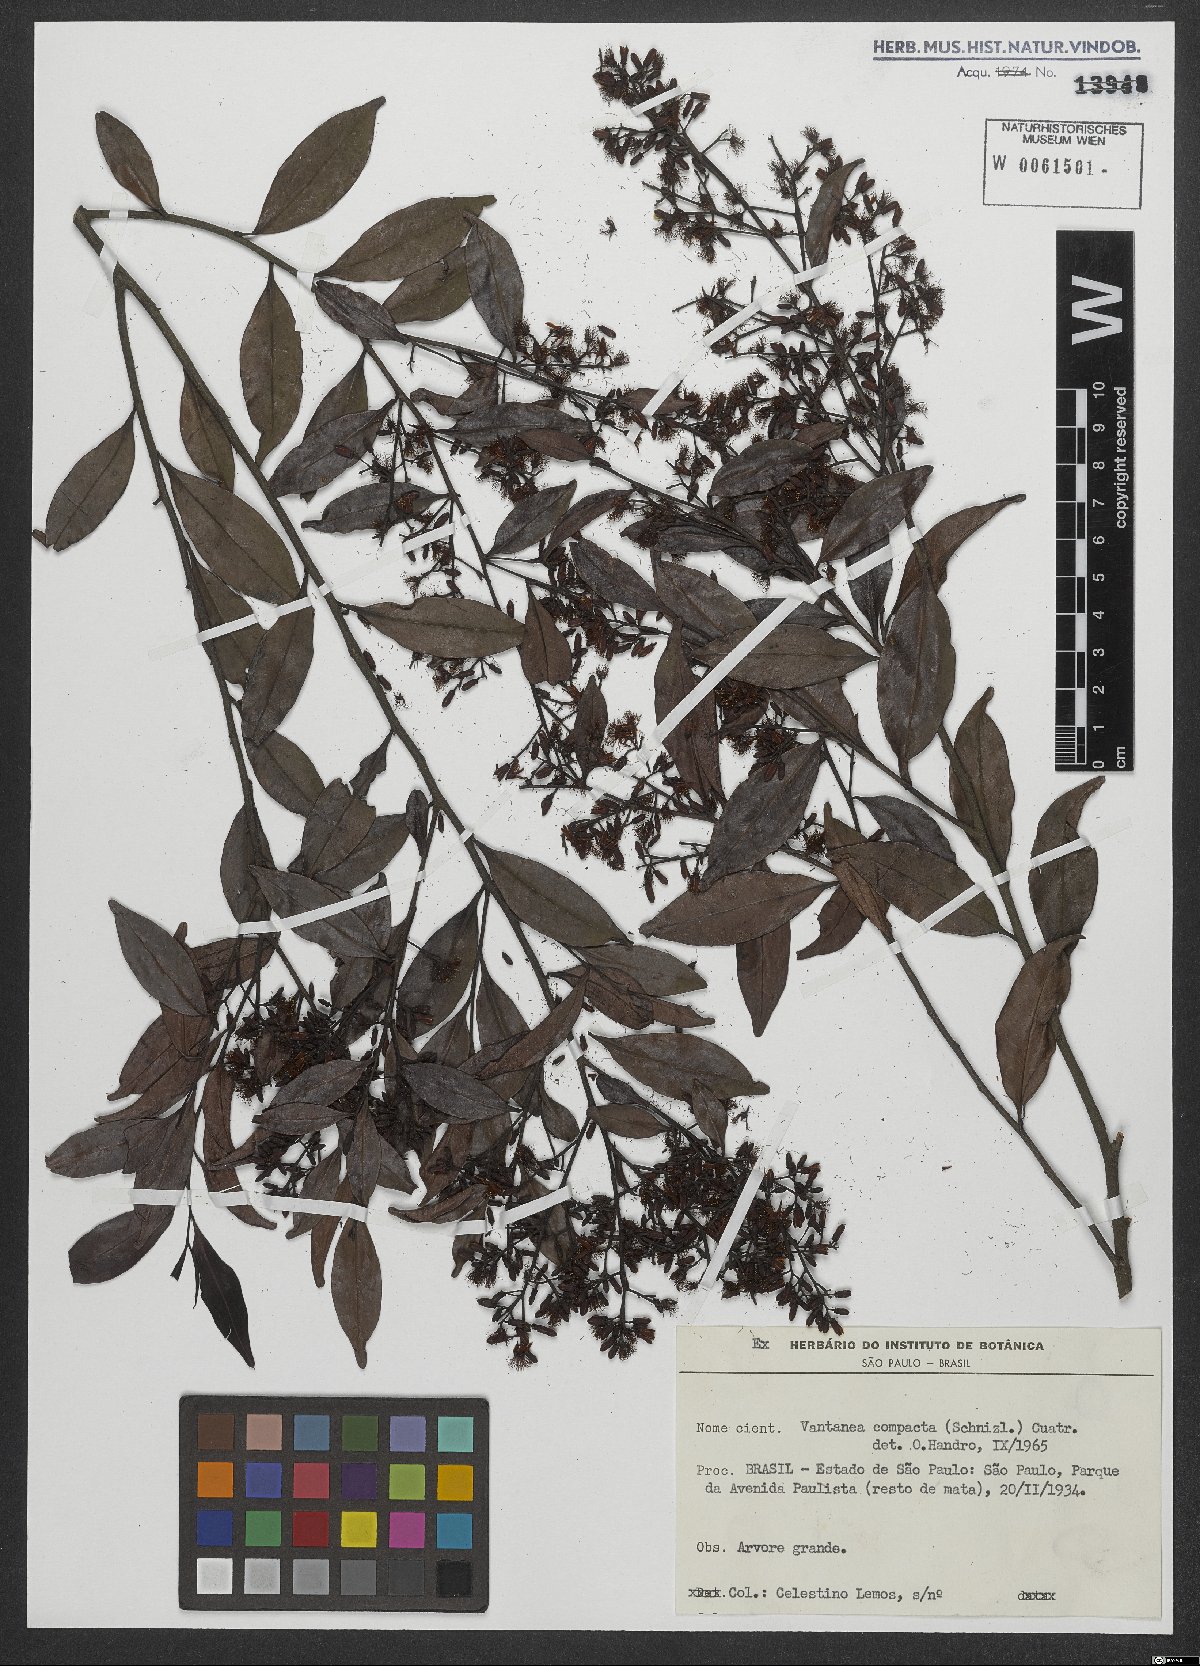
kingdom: Plantae
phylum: Tracheophyta
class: Magnoliopsida
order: Malpighiales
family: Humiriaceae
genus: Vantanea
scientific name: Vantanea compacta
